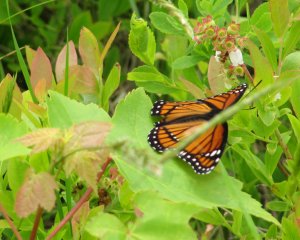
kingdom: Animalia
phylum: Arthropoda
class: Insecta
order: Lepidoptera
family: Nymphalidae
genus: Limenitis
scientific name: Limenitis archippus
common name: Viceroy
